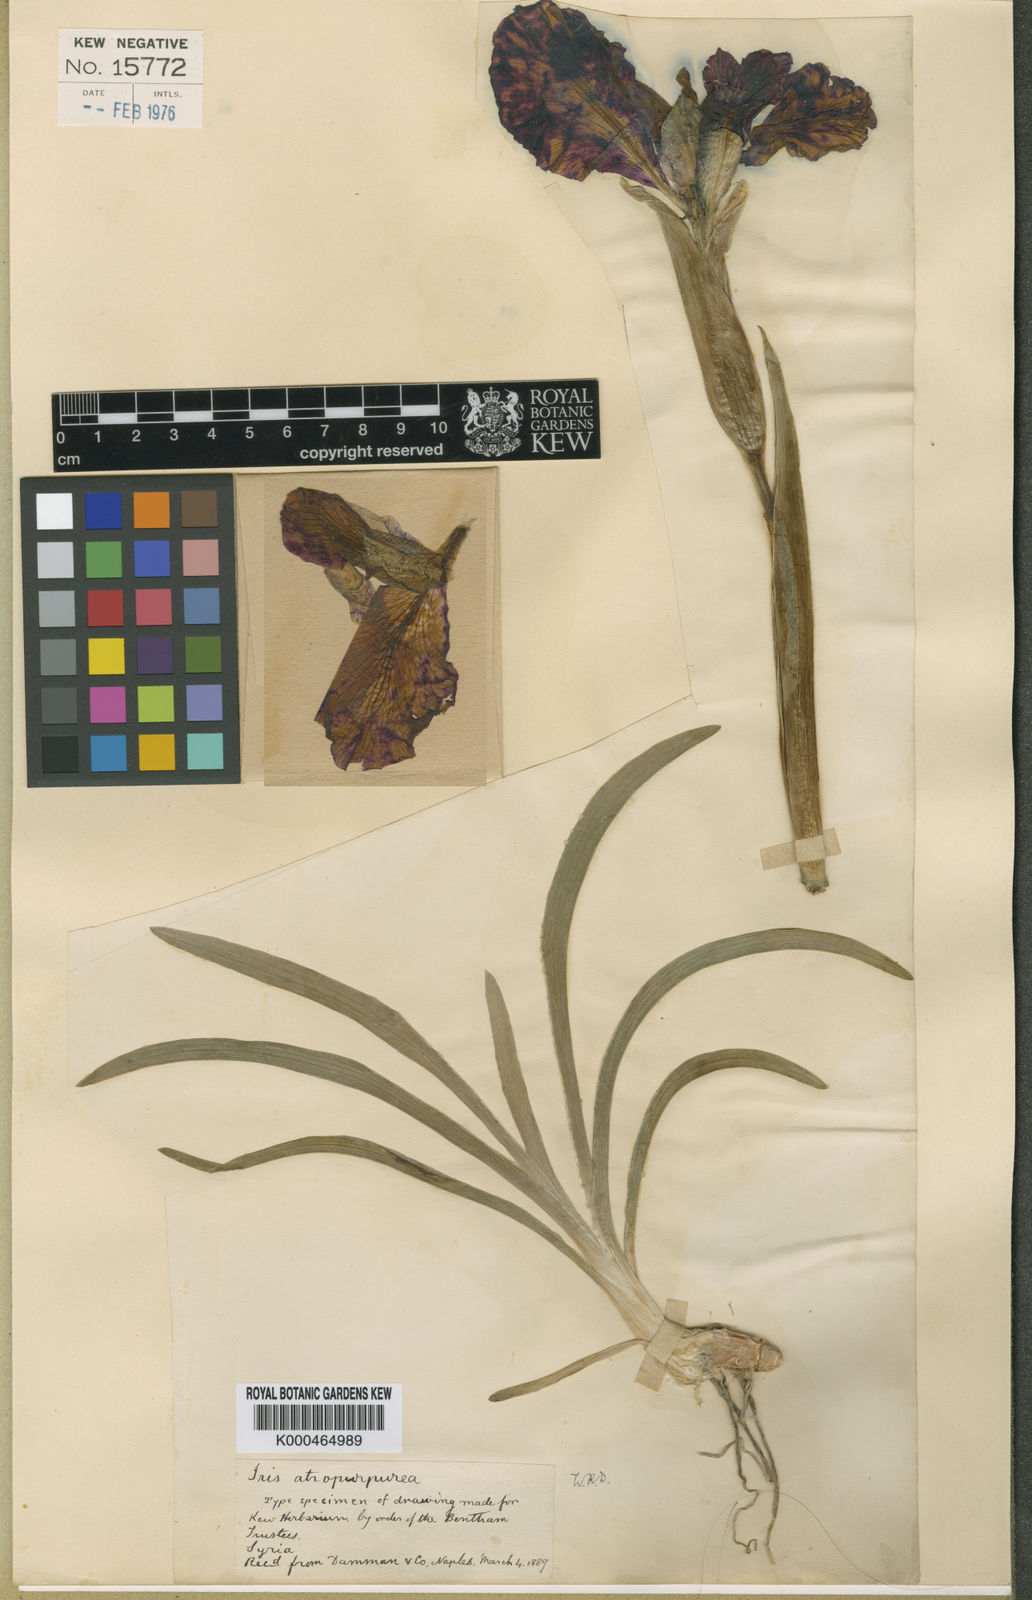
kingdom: Plantae
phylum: Tracheophyta
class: Liliopsida
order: Asparagales
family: Iridaceae
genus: Iris
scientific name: Iris atropurpurea
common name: Coastal iris
